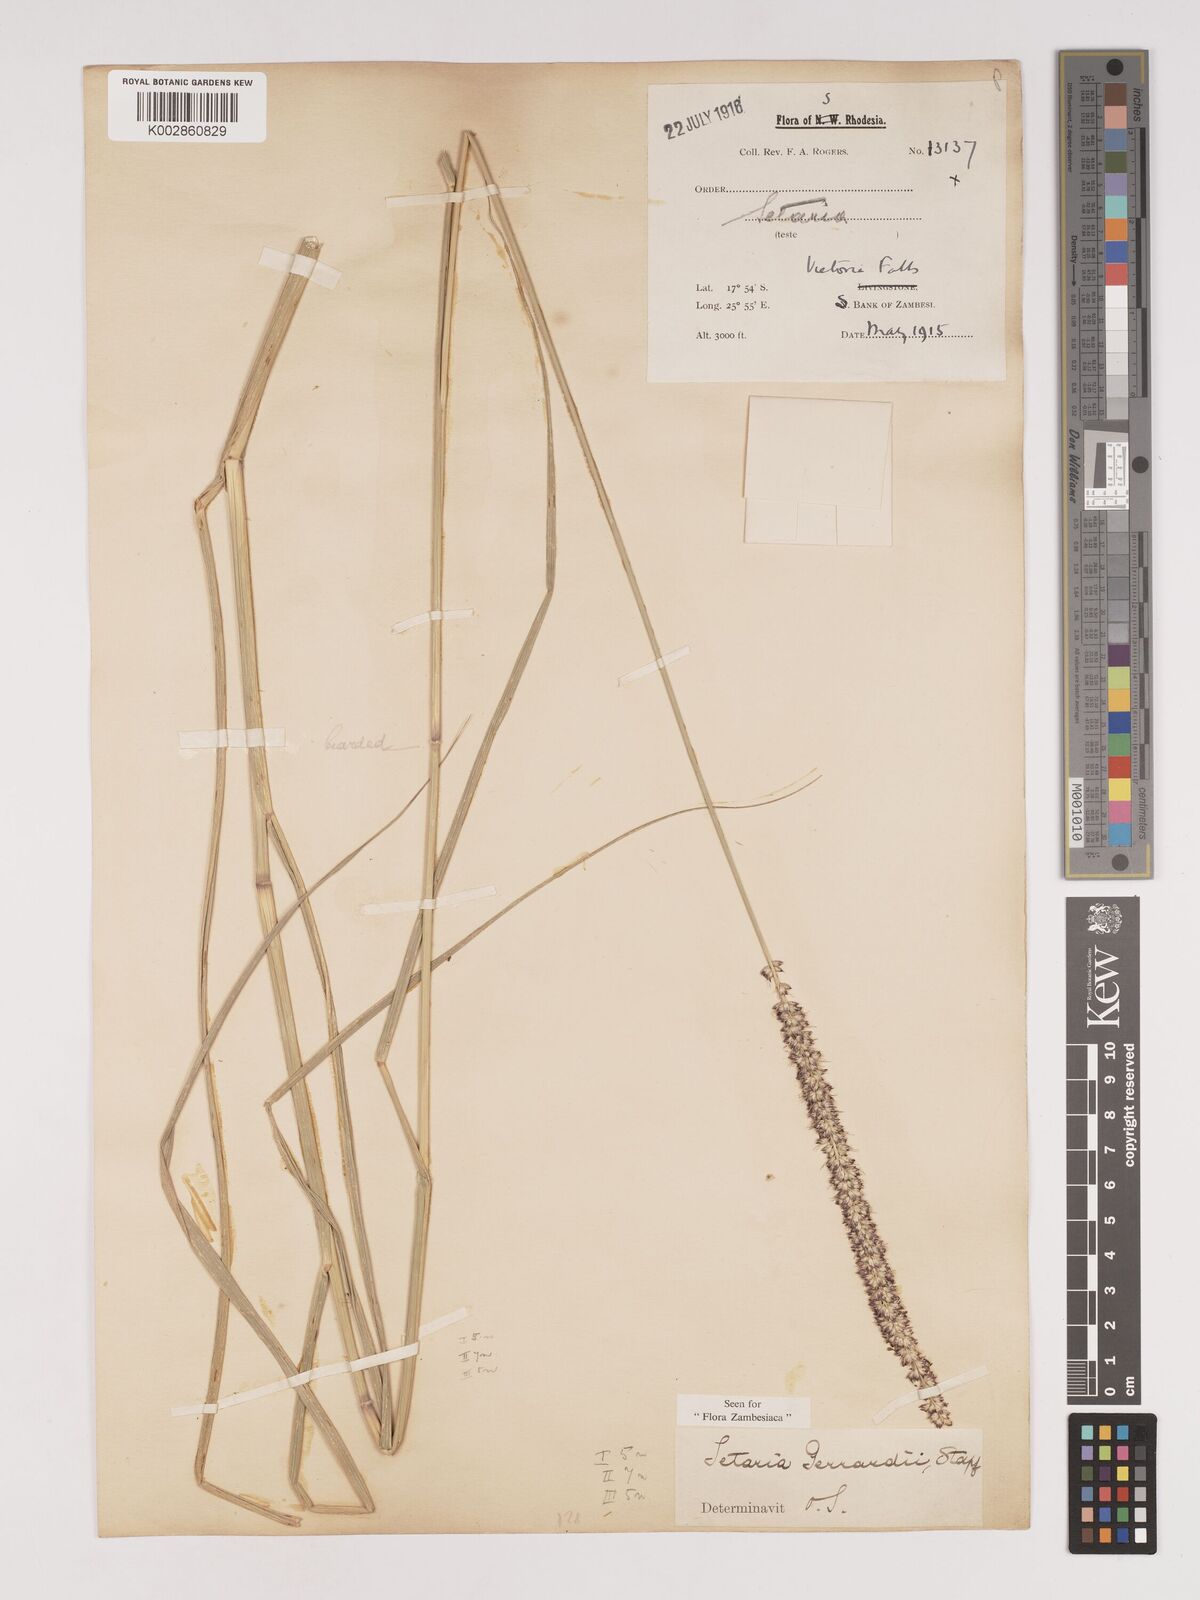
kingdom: Plantae
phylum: Tracheophyta
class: Liliopsida
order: Poales
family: Poaceae
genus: Setaria
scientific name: Setaria incrassata
